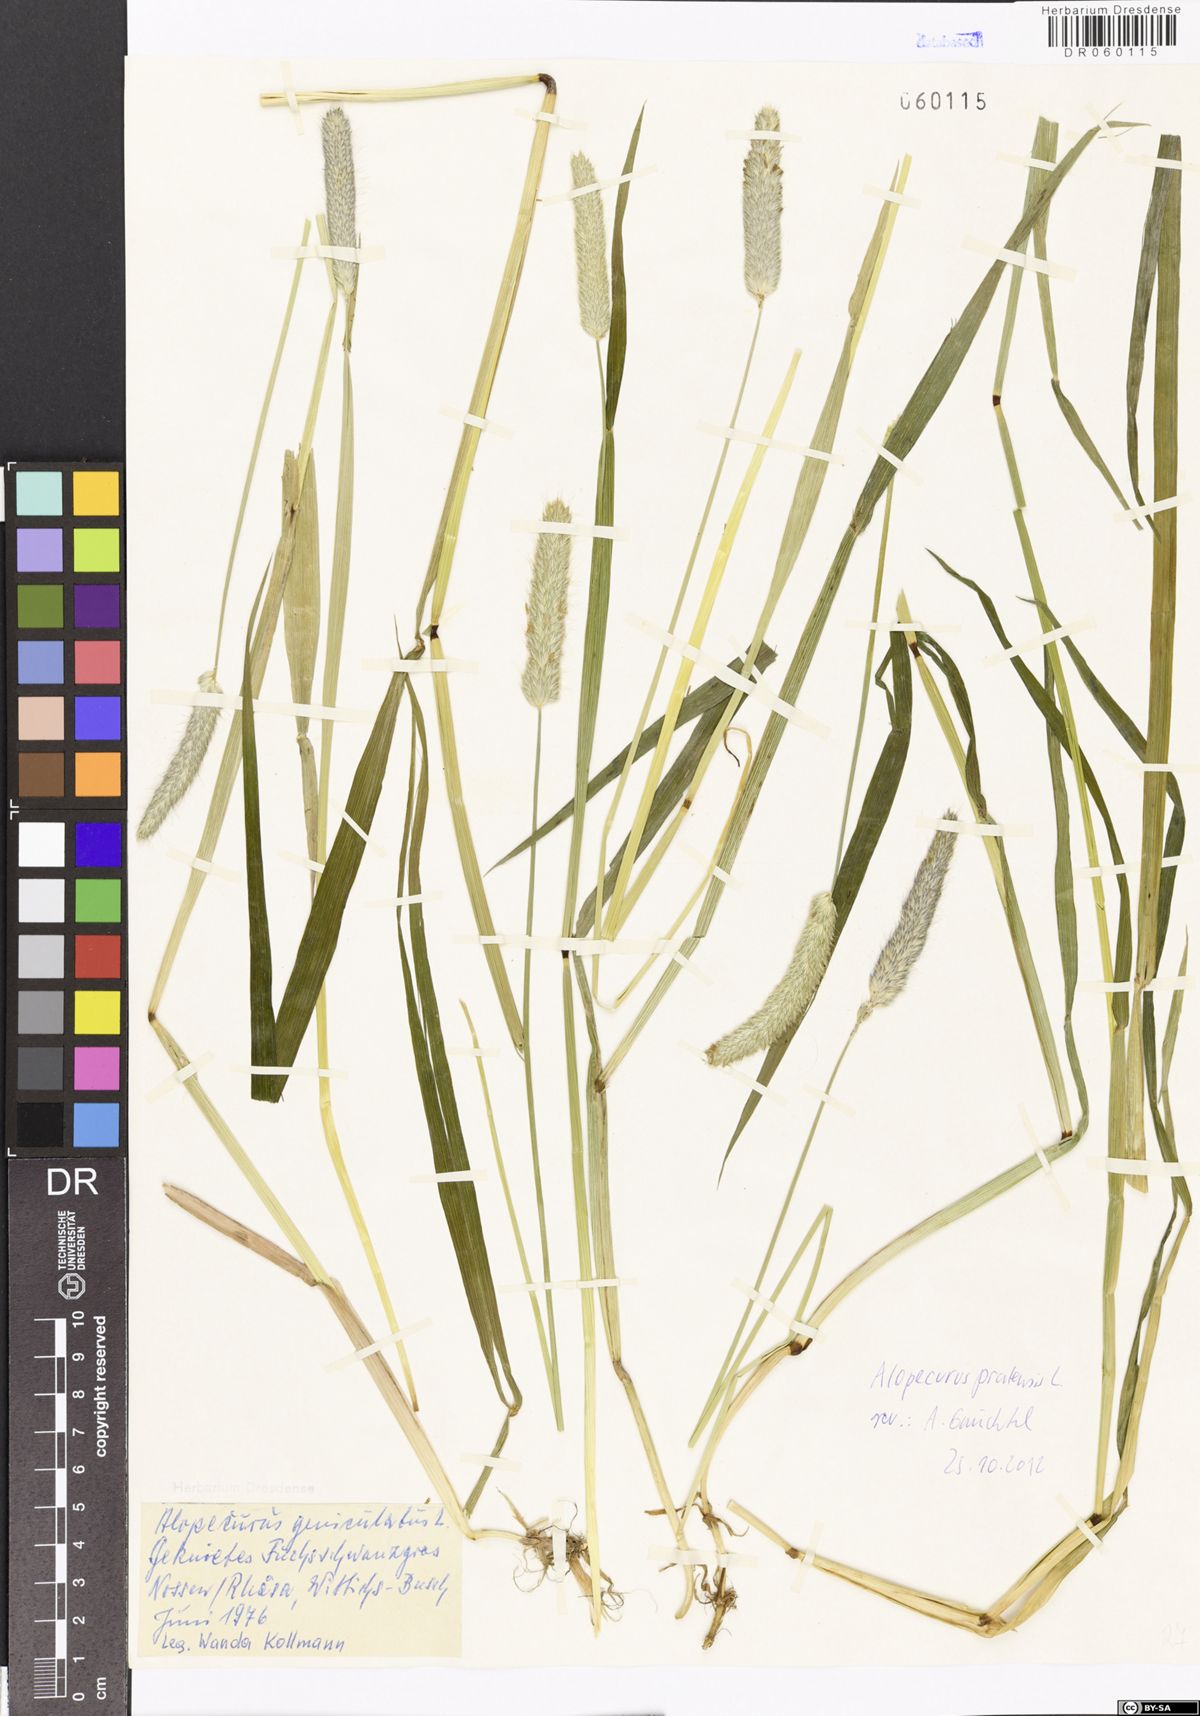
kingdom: Plantae
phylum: Tracheophyta
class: Liliopsida
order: Poales
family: Poaceae
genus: Alopecurus
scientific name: Alopecurus pratensis
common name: Meadow foxtail
